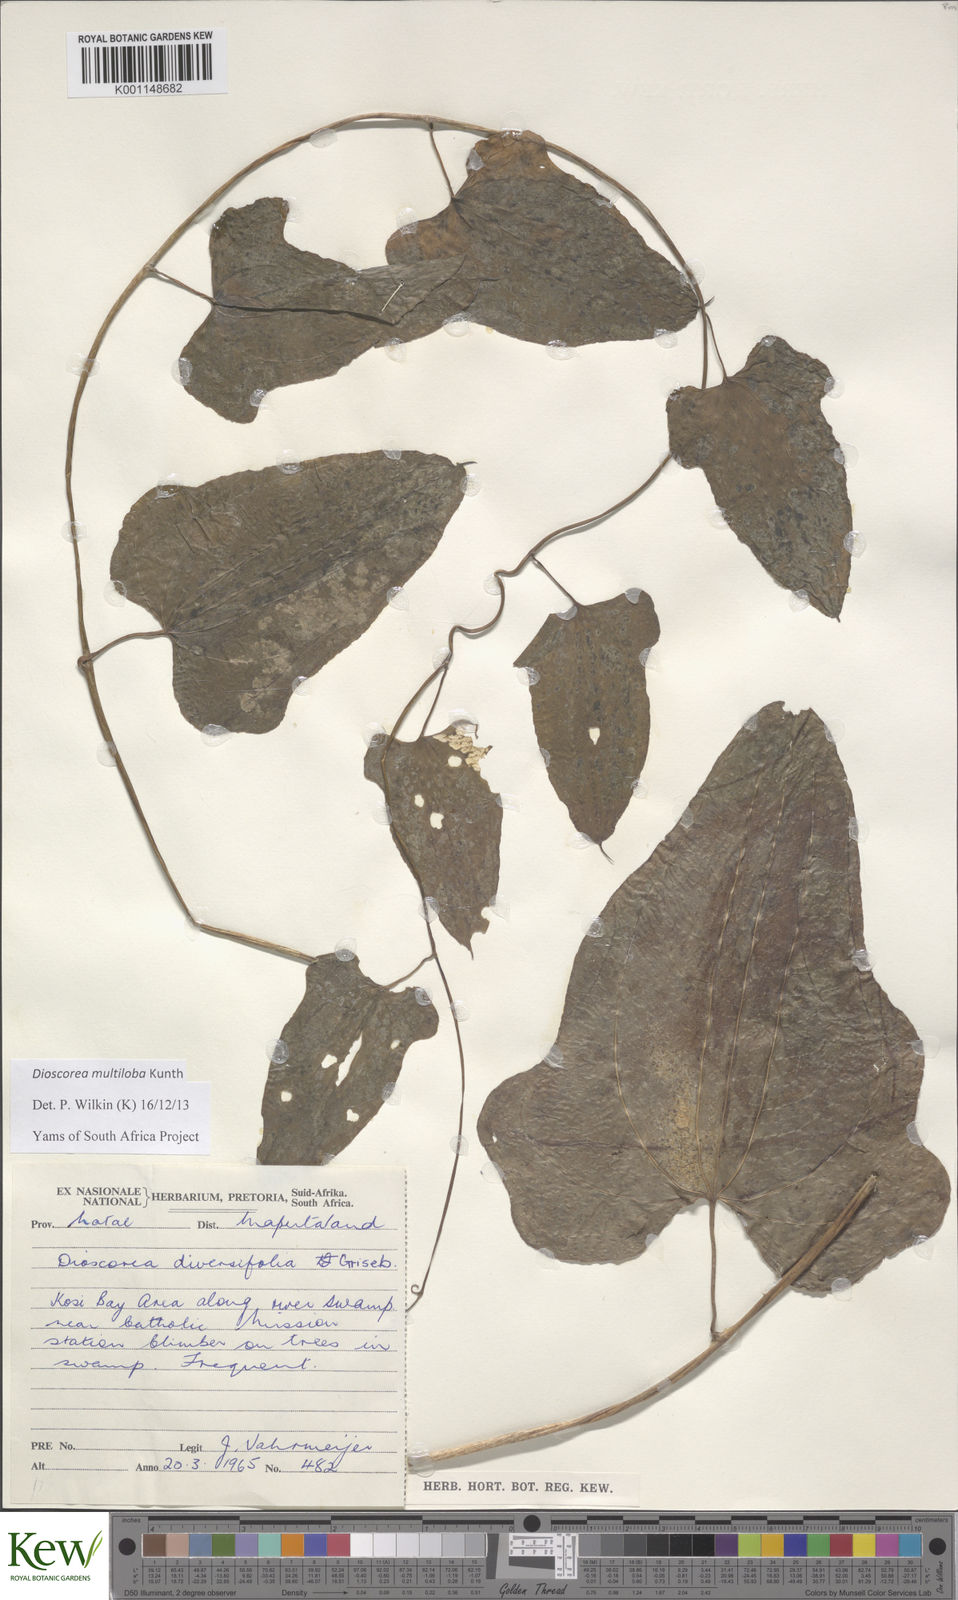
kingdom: Plantae
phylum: Tracheophyta
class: Liliopsida
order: Dioscoreales
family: Dioscoreaceae
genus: Dioscorea
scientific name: Dioscorea multiloba
